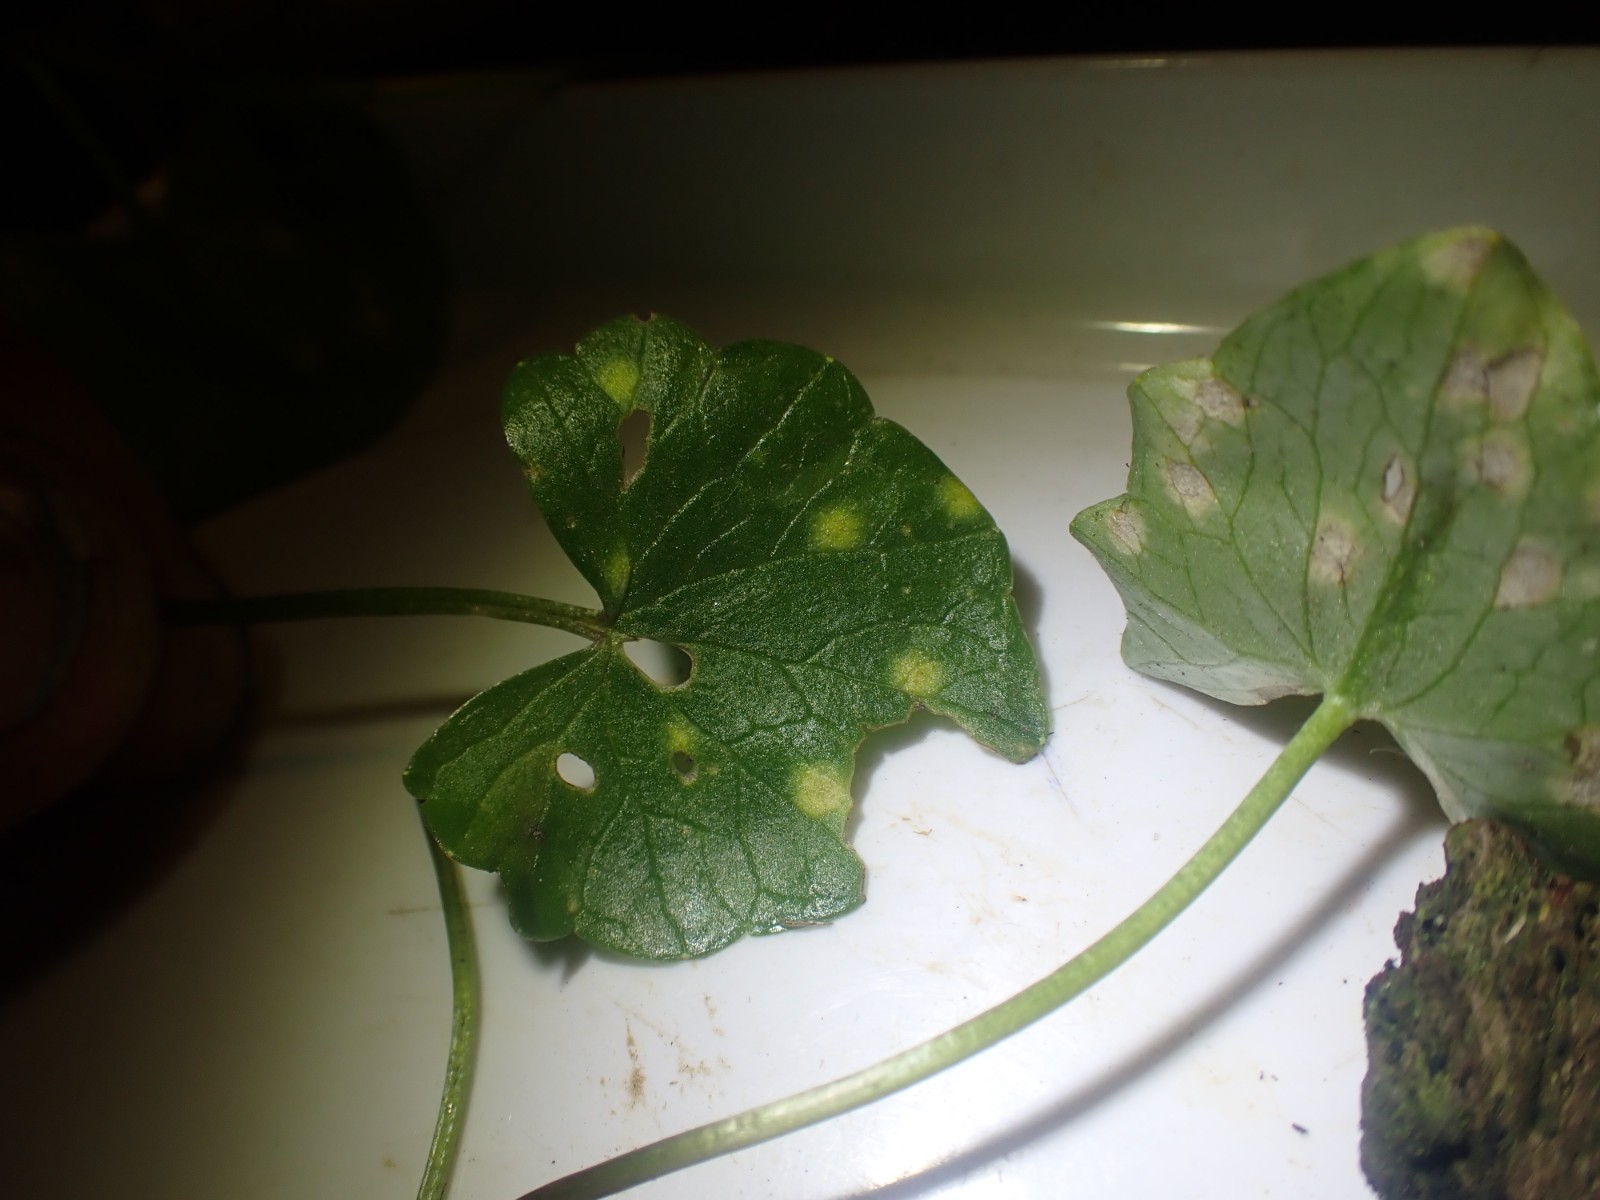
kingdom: Fungi
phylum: Basidiomycota
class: Exobasidiomycetes
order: Entylomatales
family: Entylomataceae
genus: Entyloma
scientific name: Entyloma ficariae
